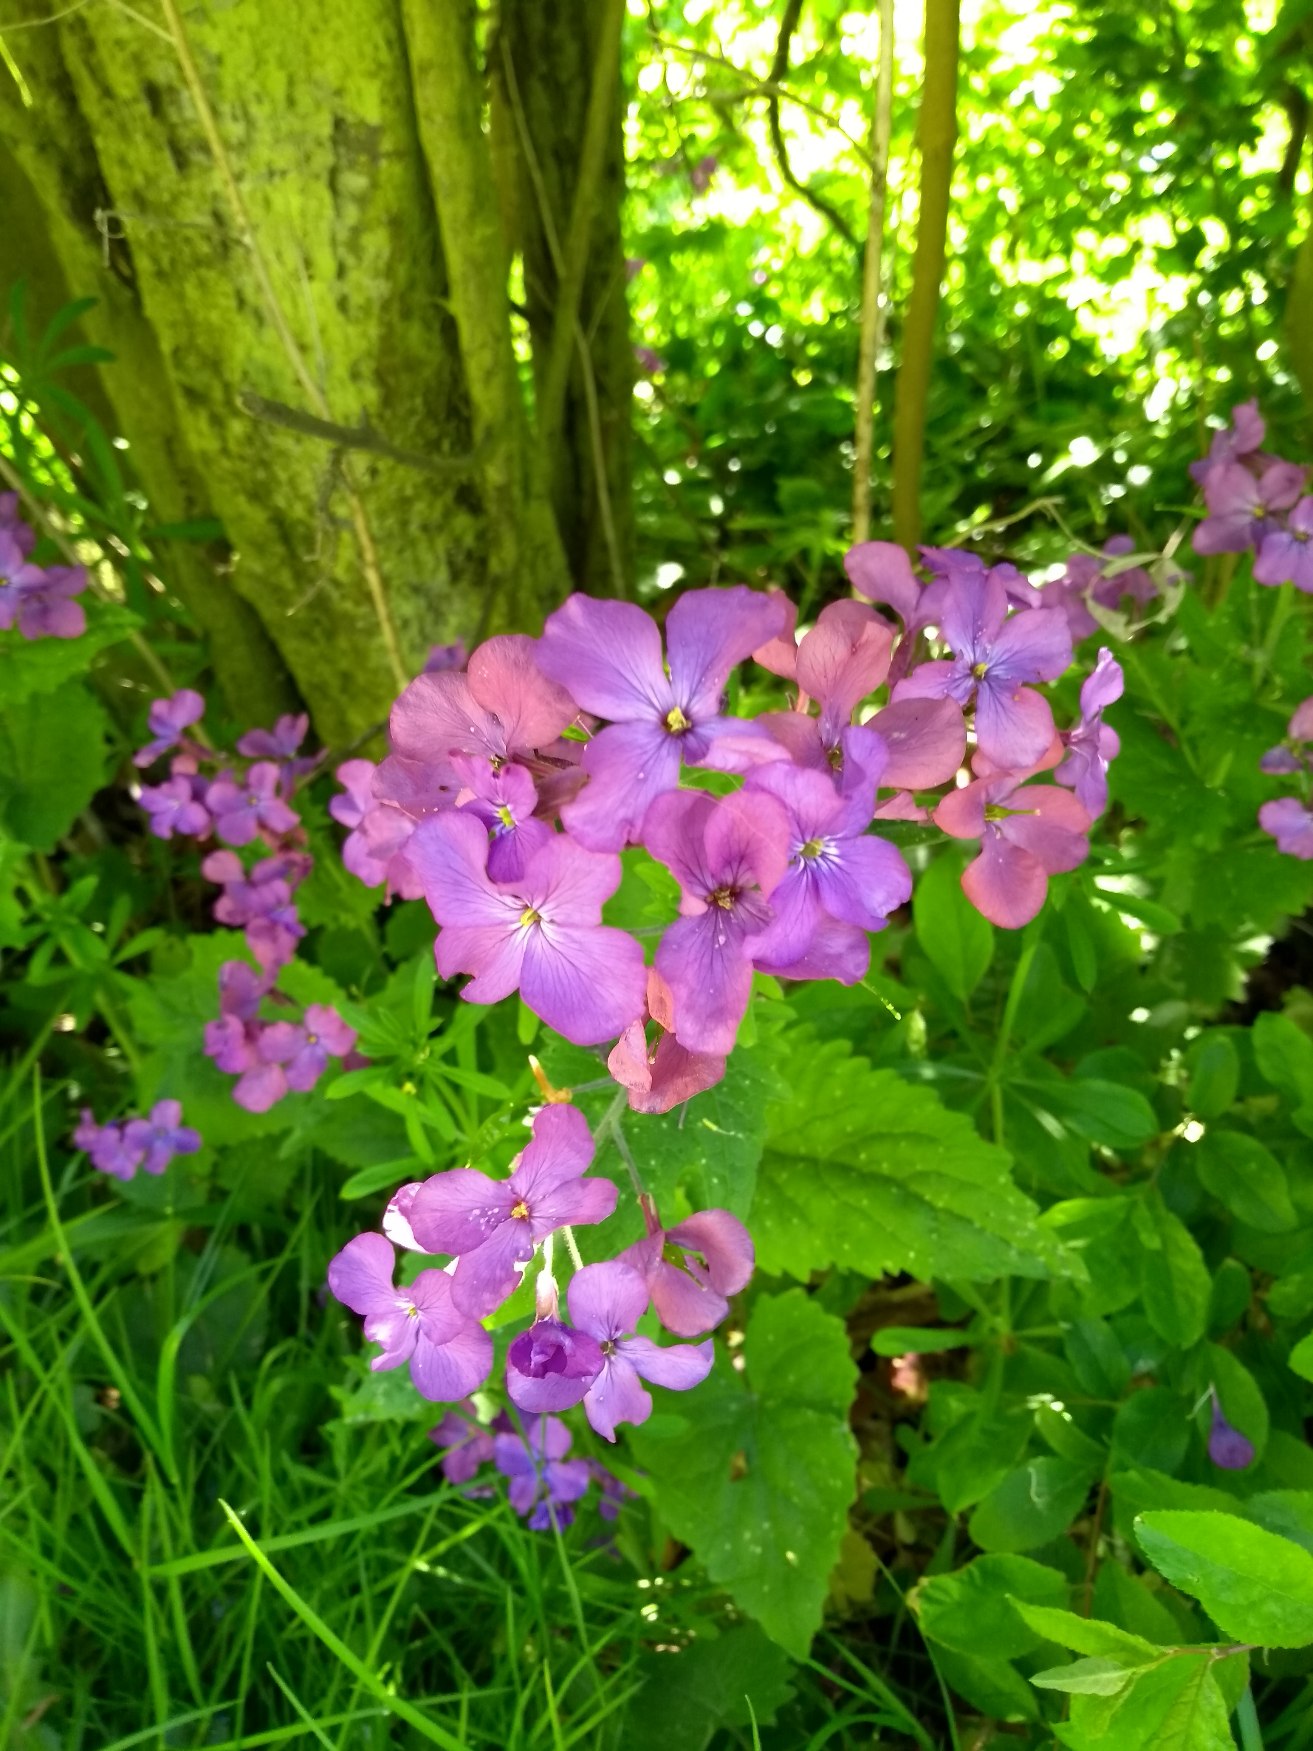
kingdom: Plantae
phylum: Tracheophyta
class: Magnoliopsida
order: Brassicales
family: Brassicaceae
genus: Lunaria
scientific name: Lunaria annua
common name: Judaspenge
